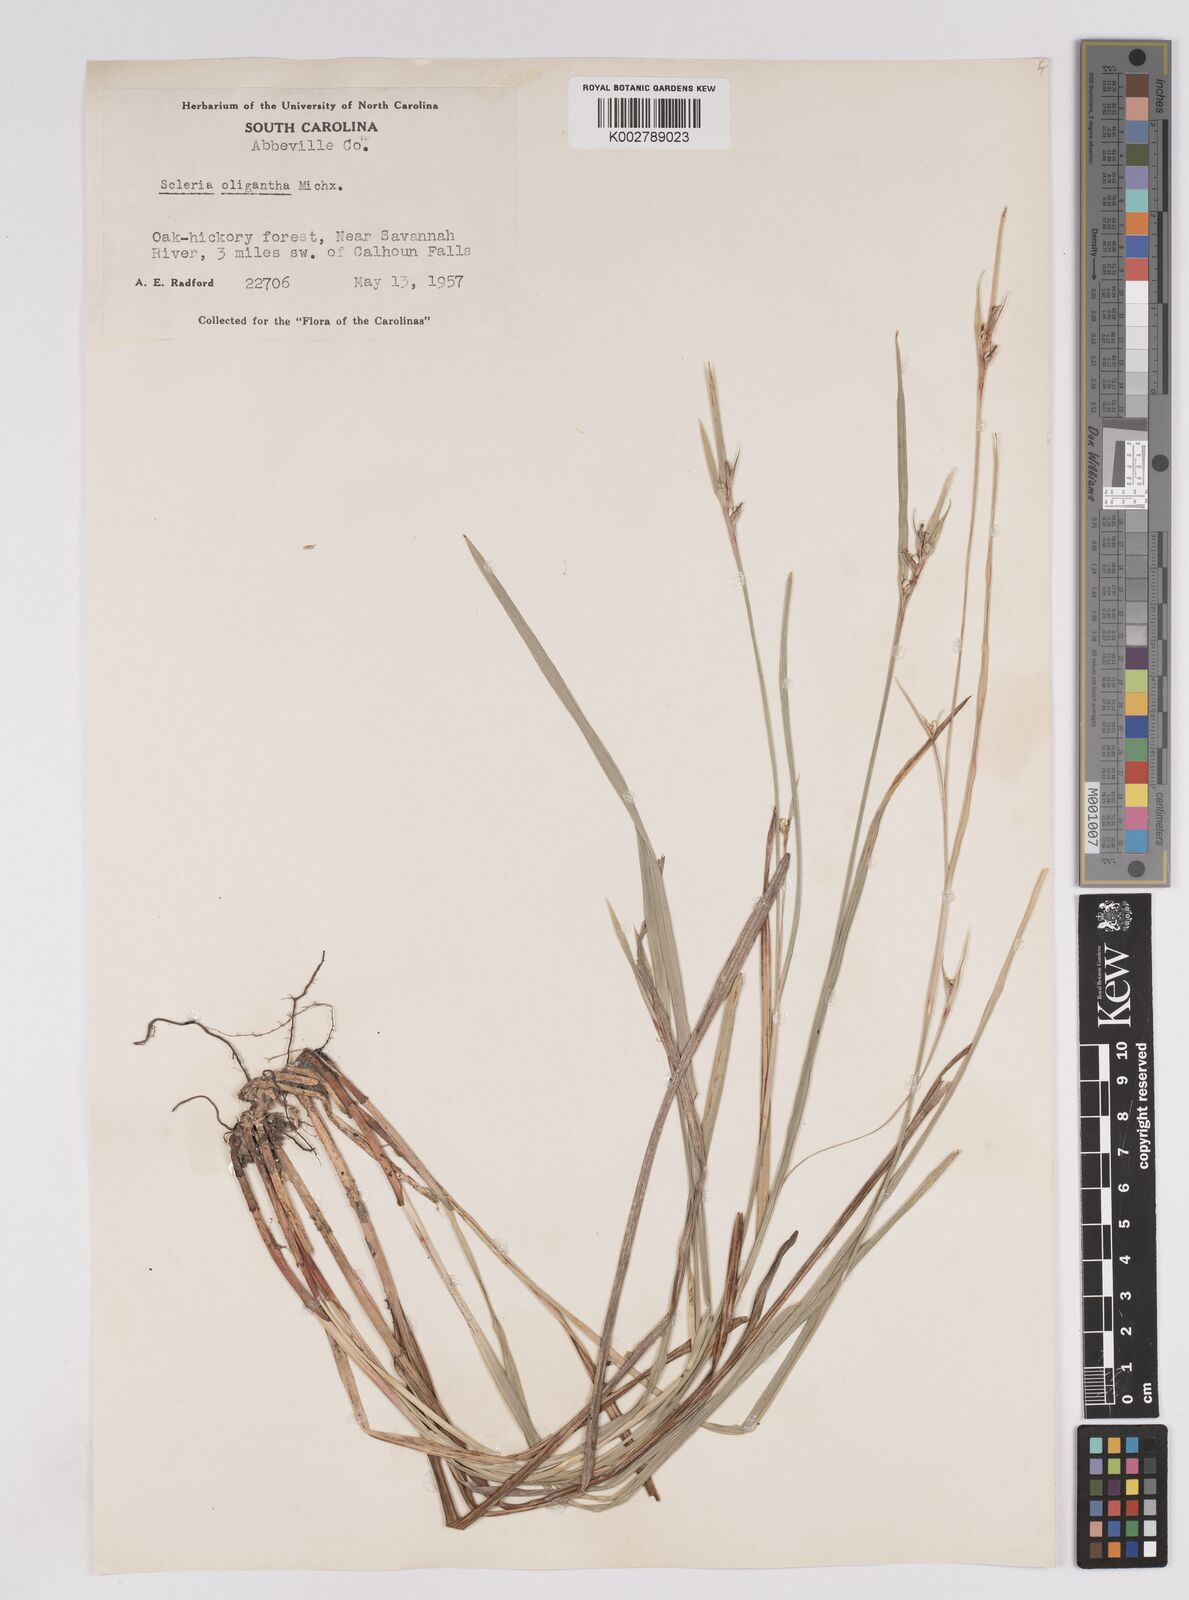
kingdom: Plantae
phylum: Tracheophyta
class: Liliopsida
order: Poales
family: Cyperaceae
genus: Scleria
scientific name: Scleria oligantha
